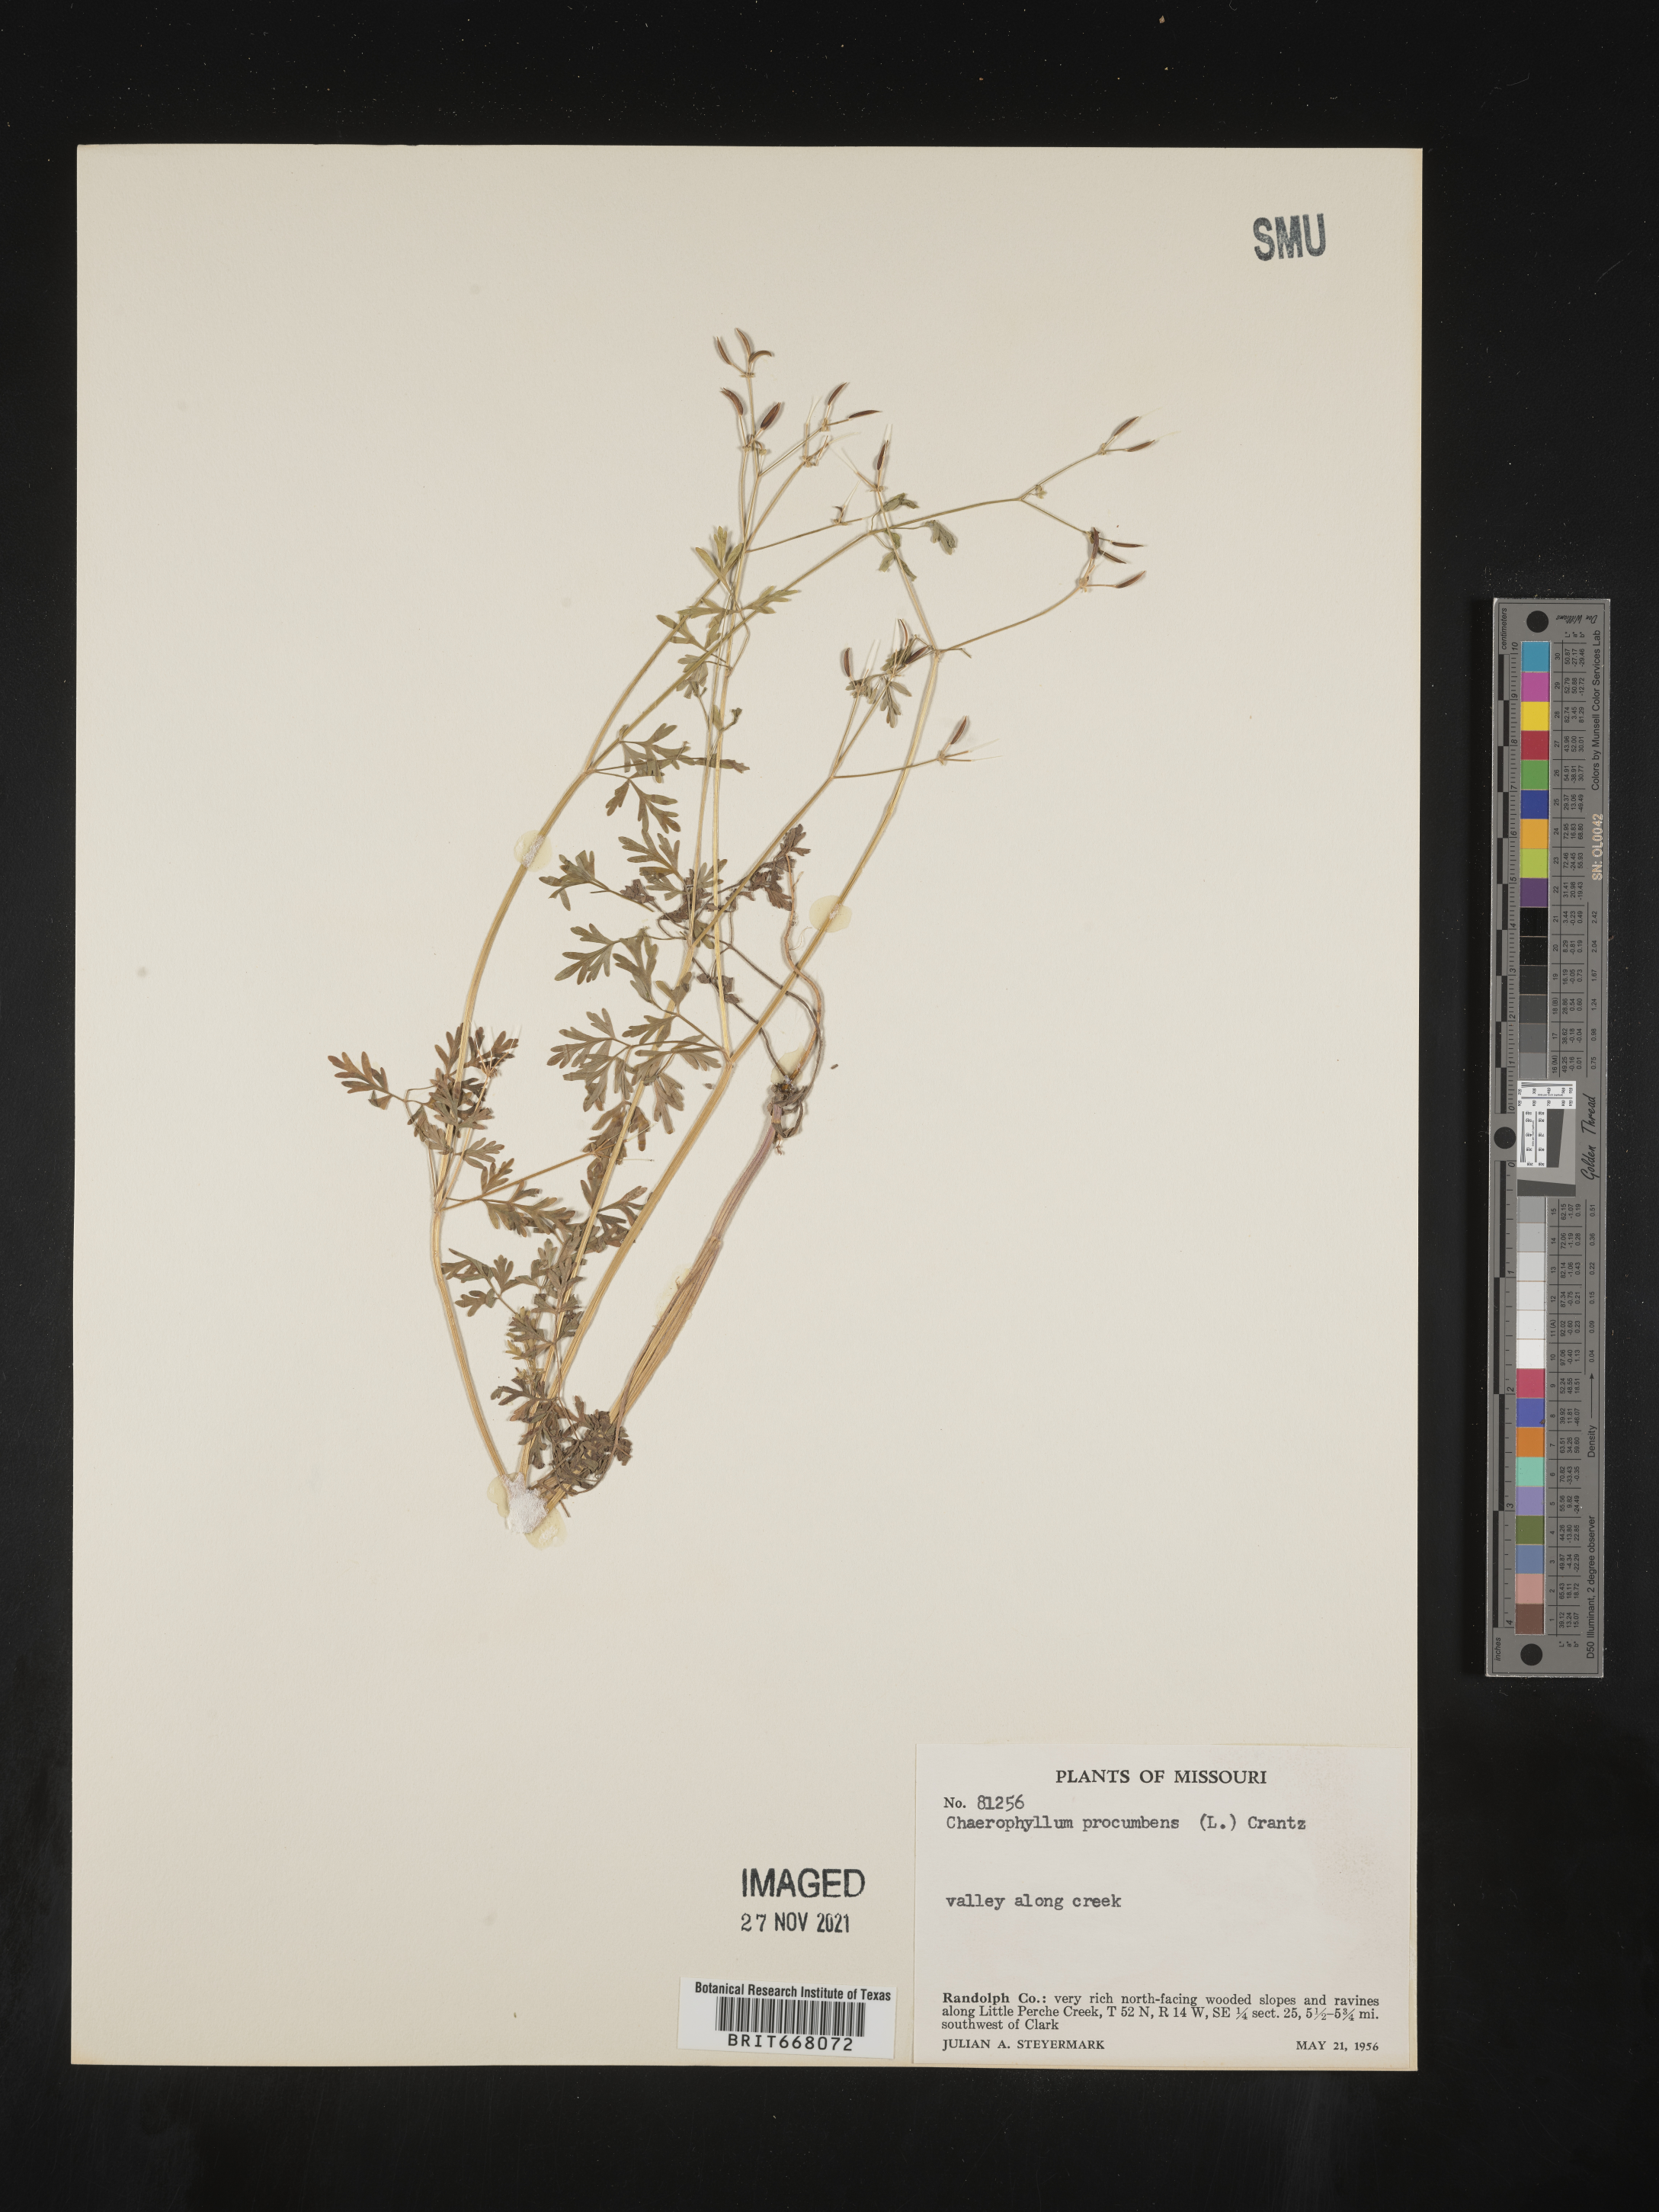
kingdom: Plantae
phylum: Tracheophyta
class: Magnoliopsida
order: Apiales
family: Apiaceae
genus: Chaerophyllum
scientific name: Chaerophyllum procumbens
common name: Spreading chervil
